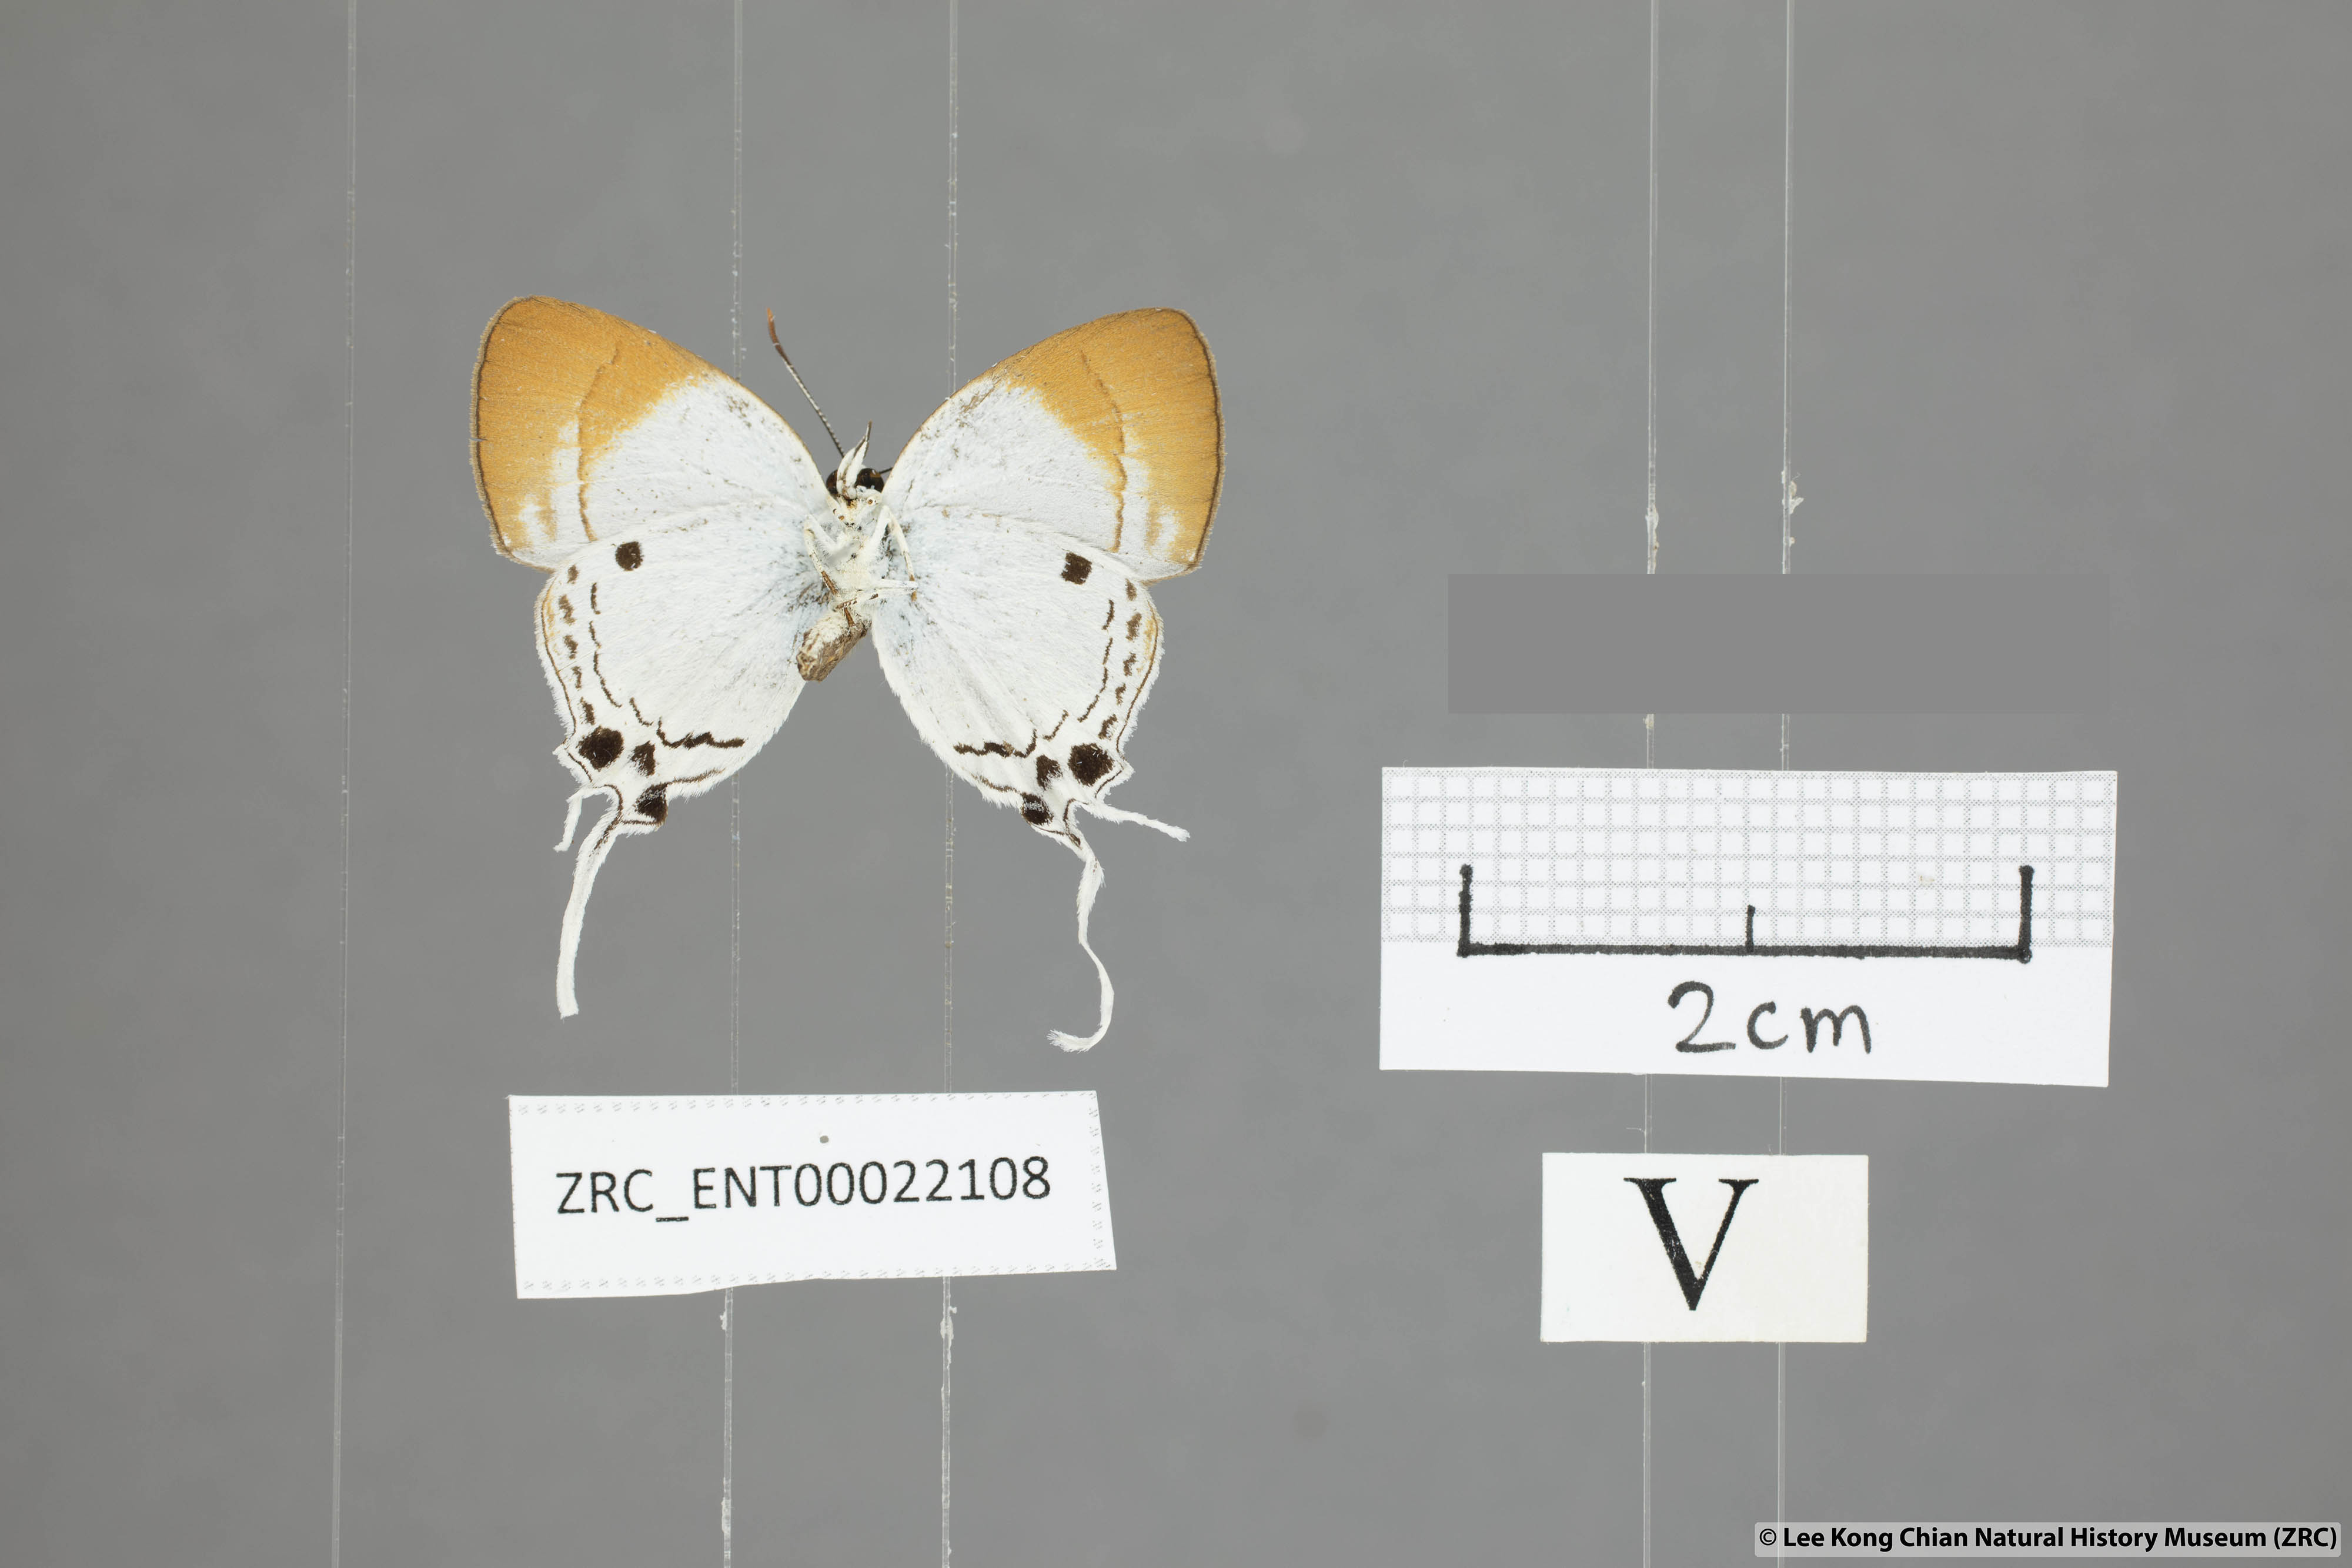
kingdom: Animalia
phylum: Arthropoda
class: Insecta
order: Lepidoptera
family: Lycaenidae
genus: Suasa
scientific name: Suasa lisides
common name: Red imperial
